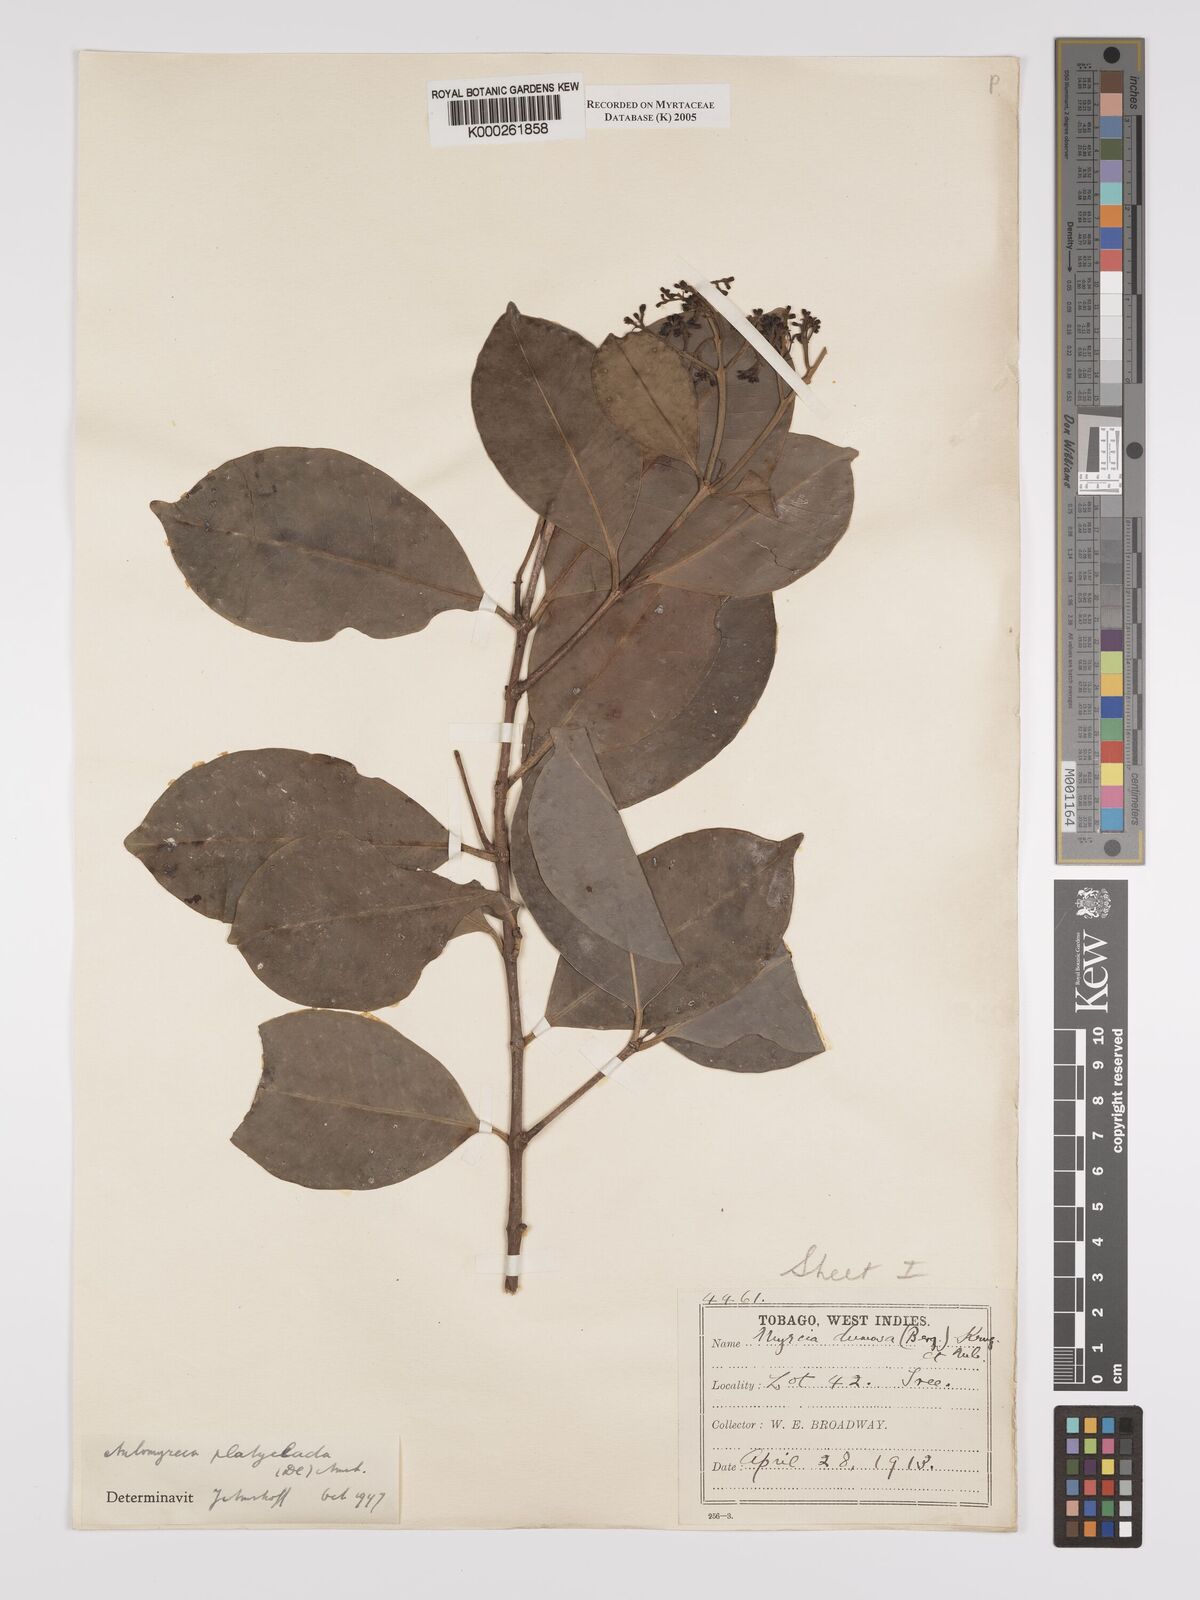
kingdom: Plantae
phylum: Tracheophyta
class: Magnoliopsida
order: Myrtales
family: Myrtaceae
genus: Myrcia
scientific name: Myrcia platyclada
